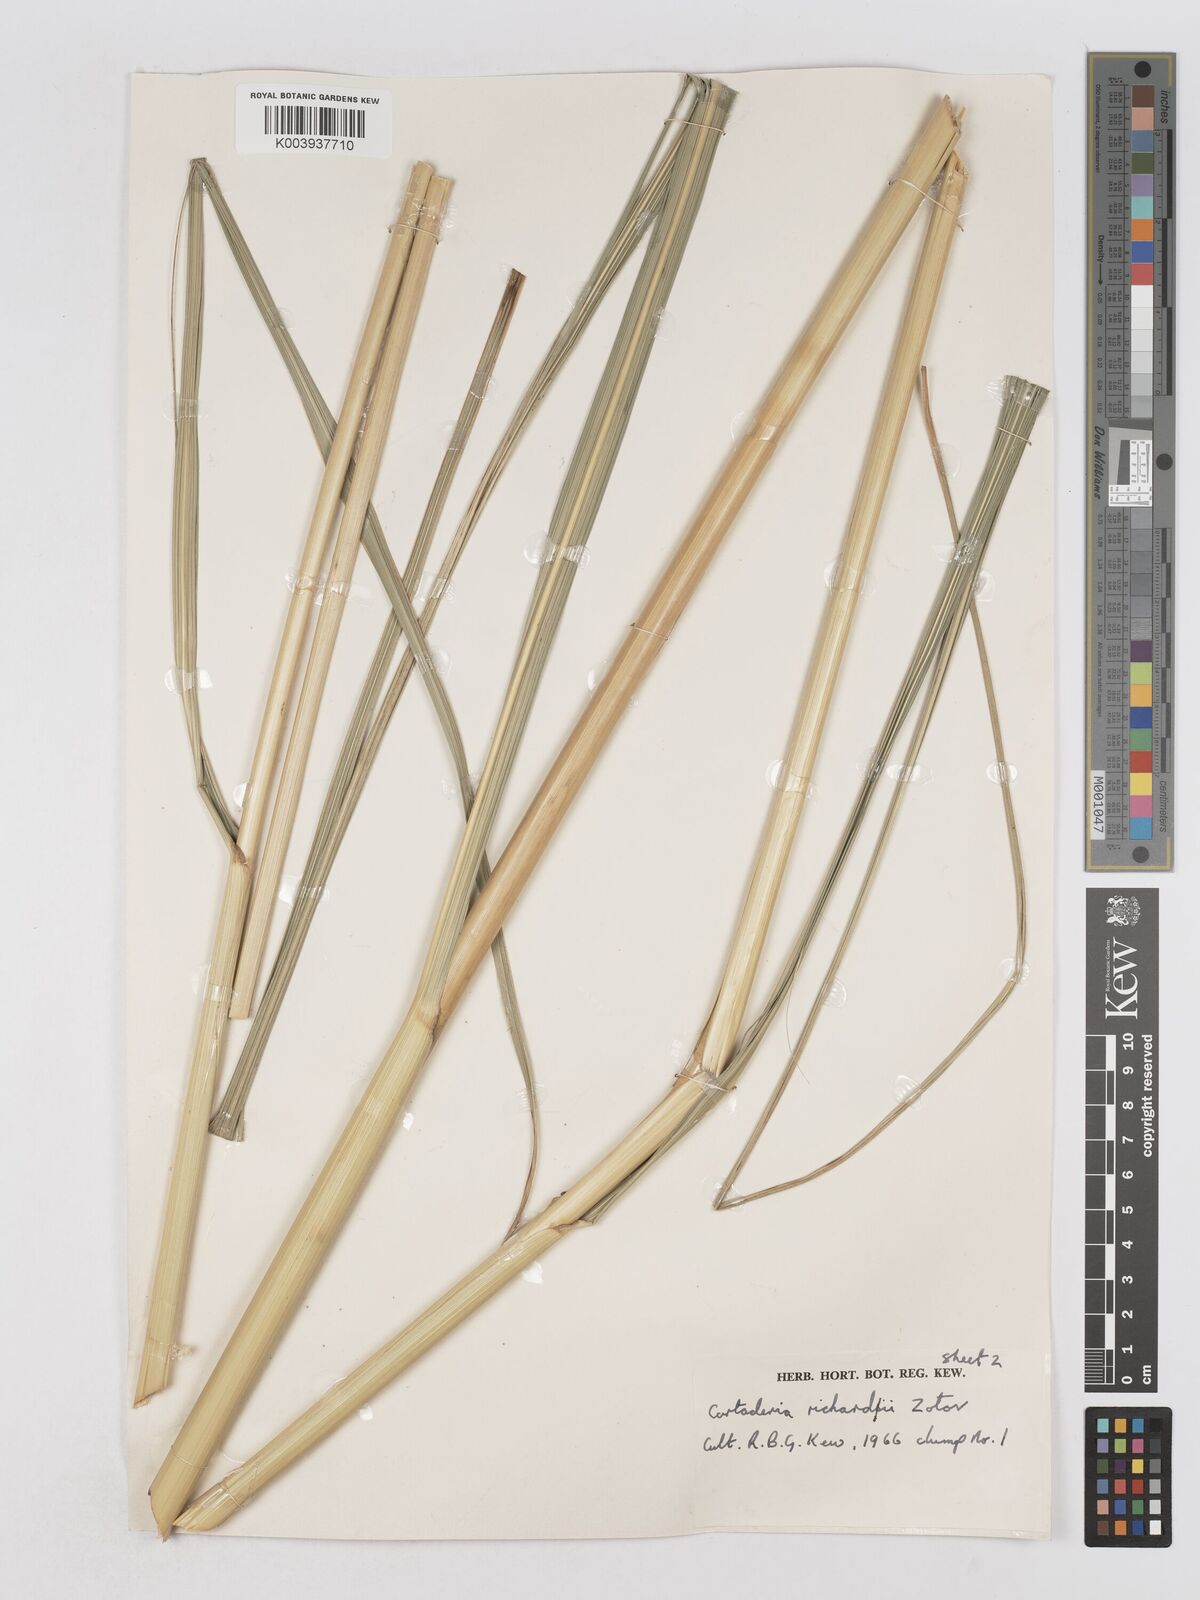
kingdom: Plantae
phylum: Tracheophyta
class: Liliopsida
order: Poales
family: Poaceae
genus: Austroderia
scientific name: Austroderia richardii
